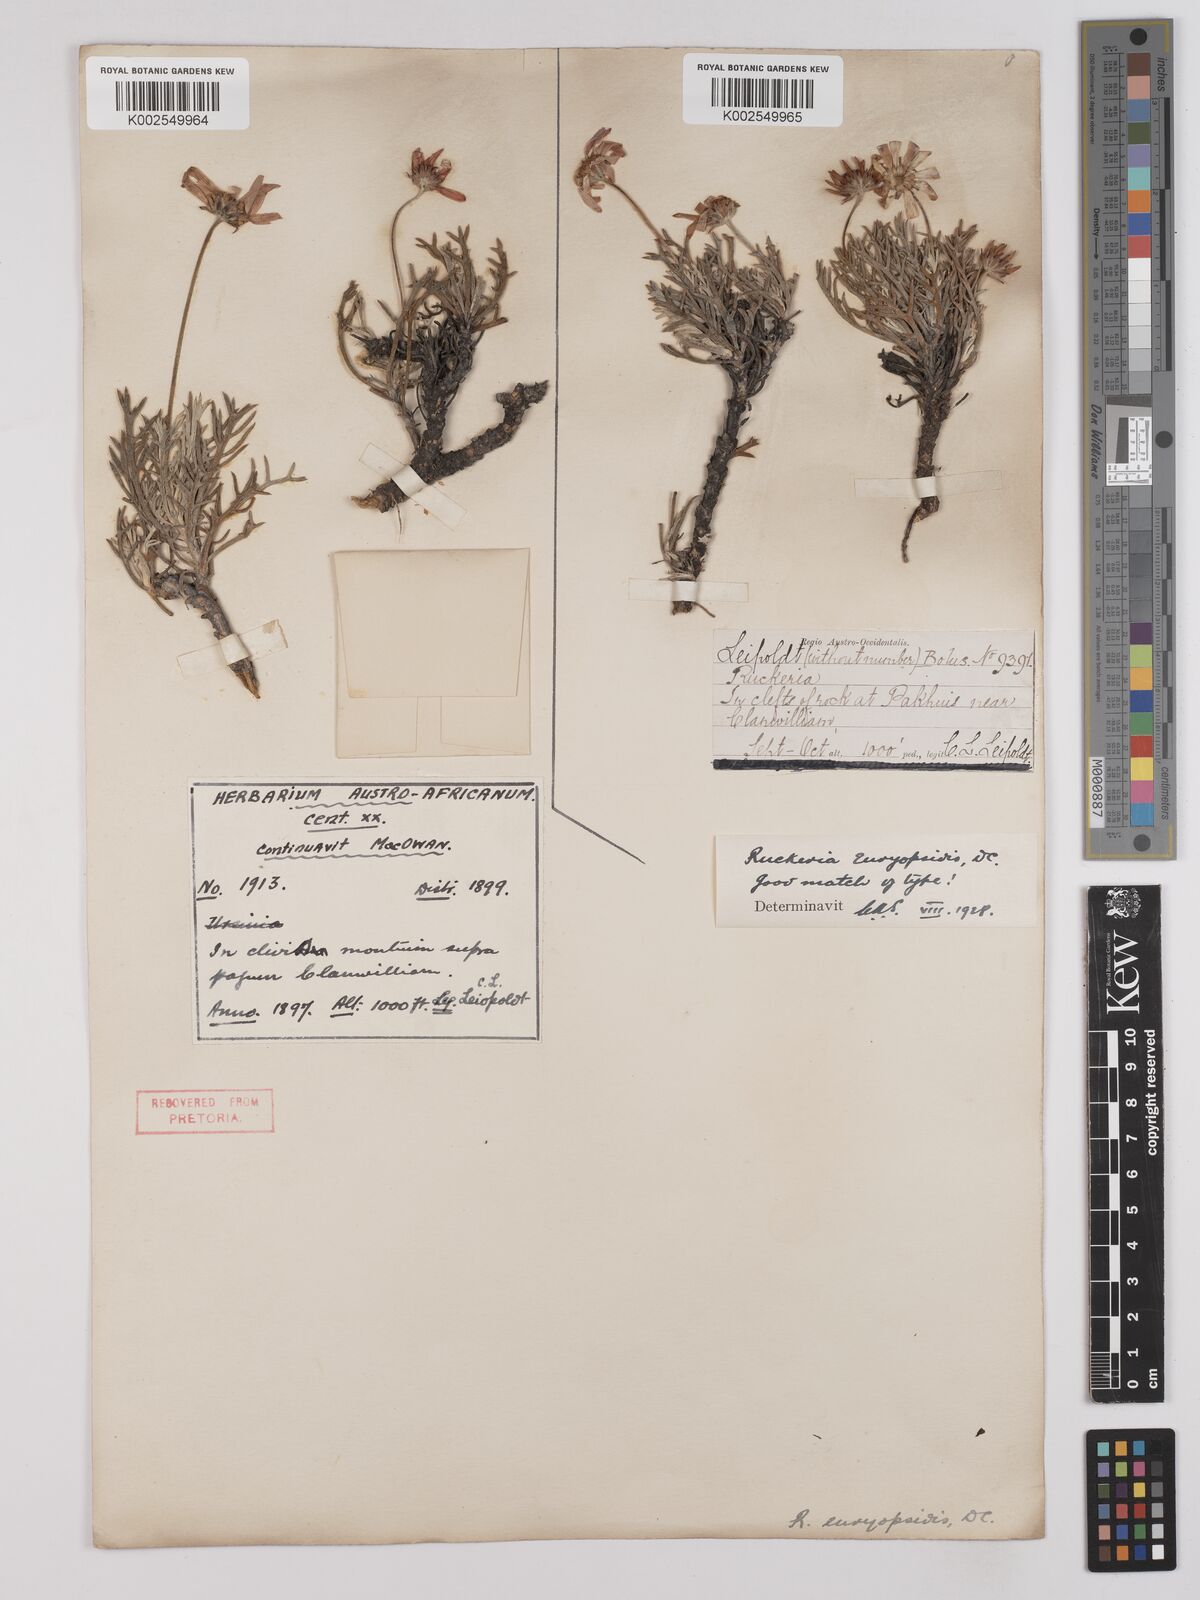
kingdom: Plantae
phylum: Tracheophyta
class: Magnoliopsida
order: Asterales
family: Asteraceae
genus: Euryops
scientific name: Euryops euryopoides
